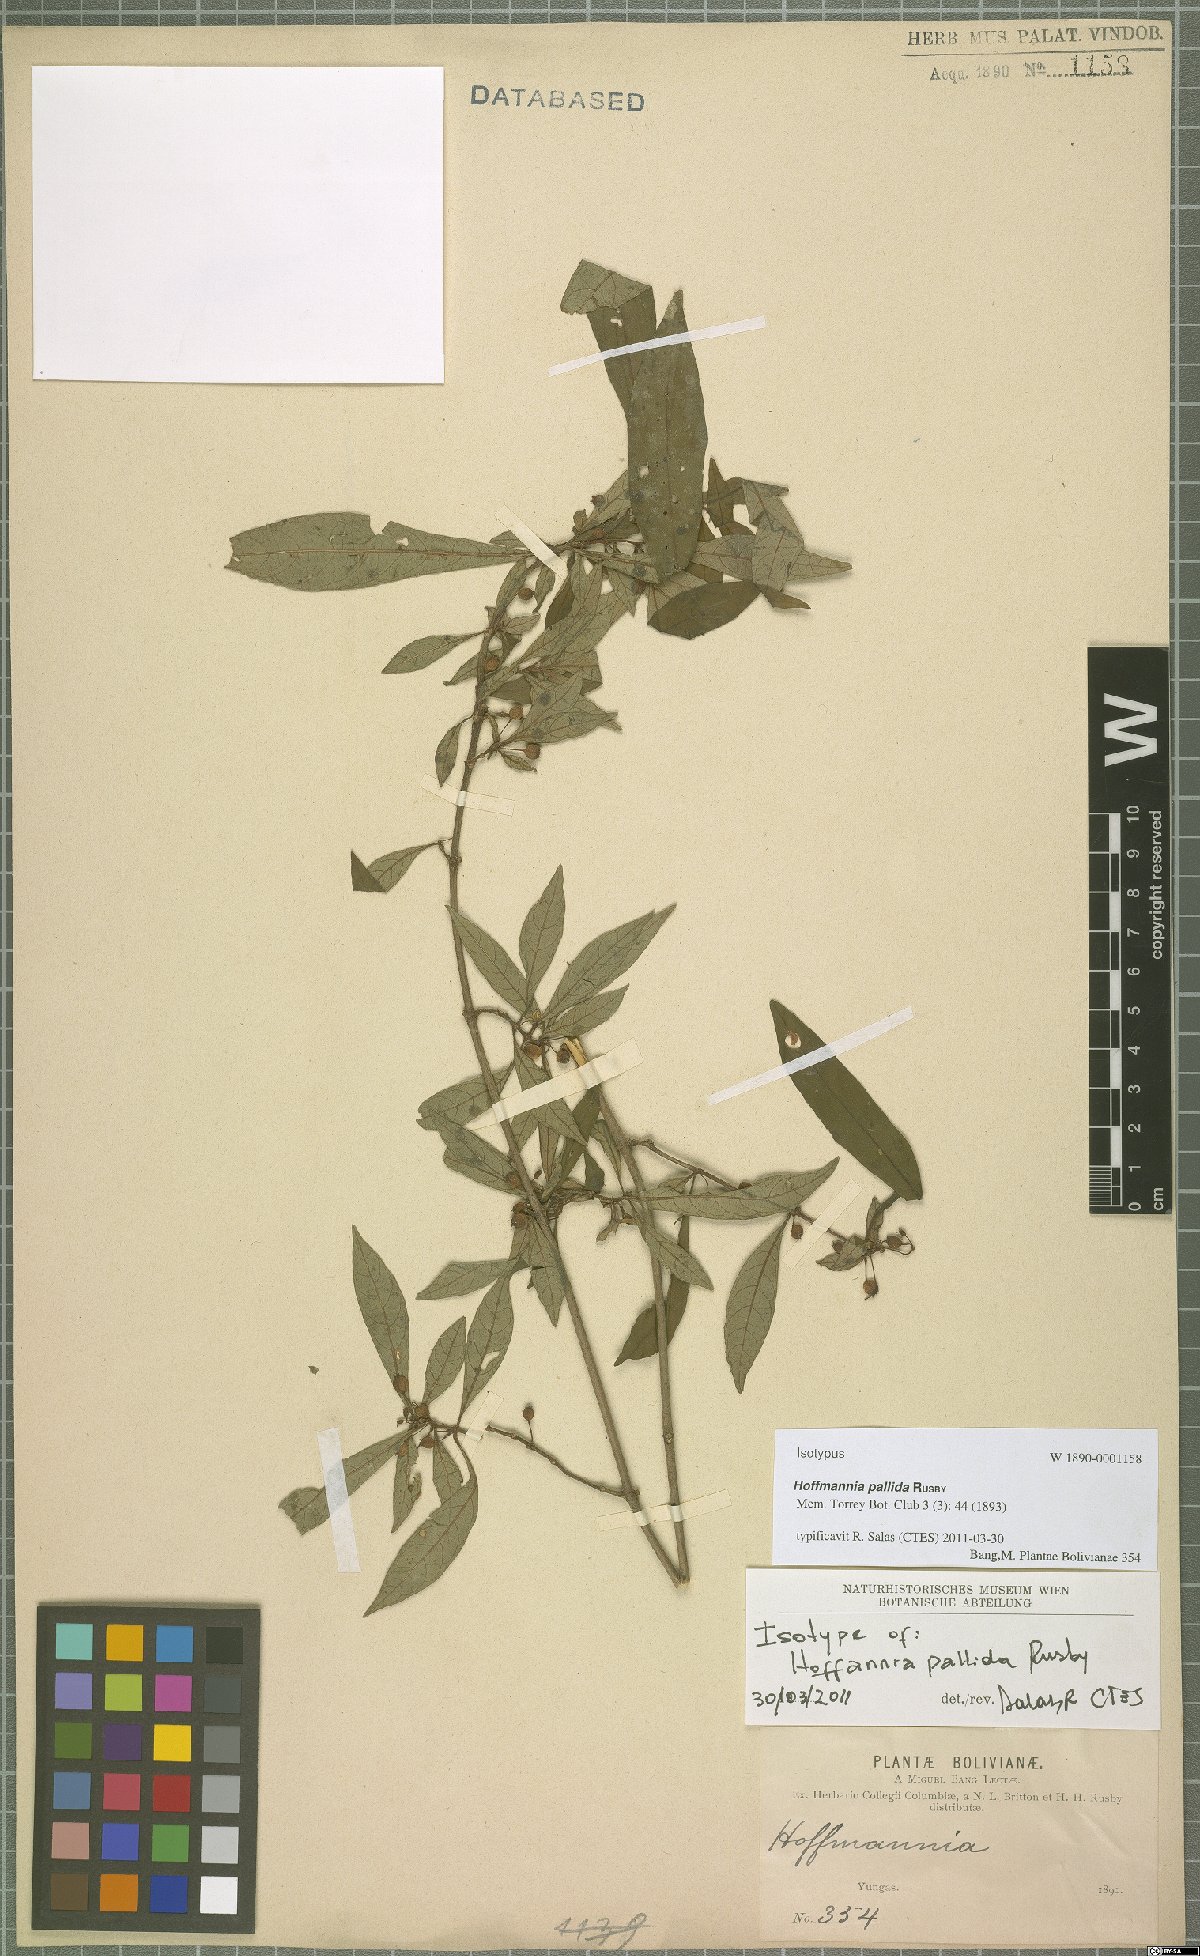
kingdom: Plantae
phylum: Tracheophyta
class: Magnoliopsida
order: Gentianales
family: Rubiaceae
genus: Hoffmannia
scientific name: Hoffmannia pallida
